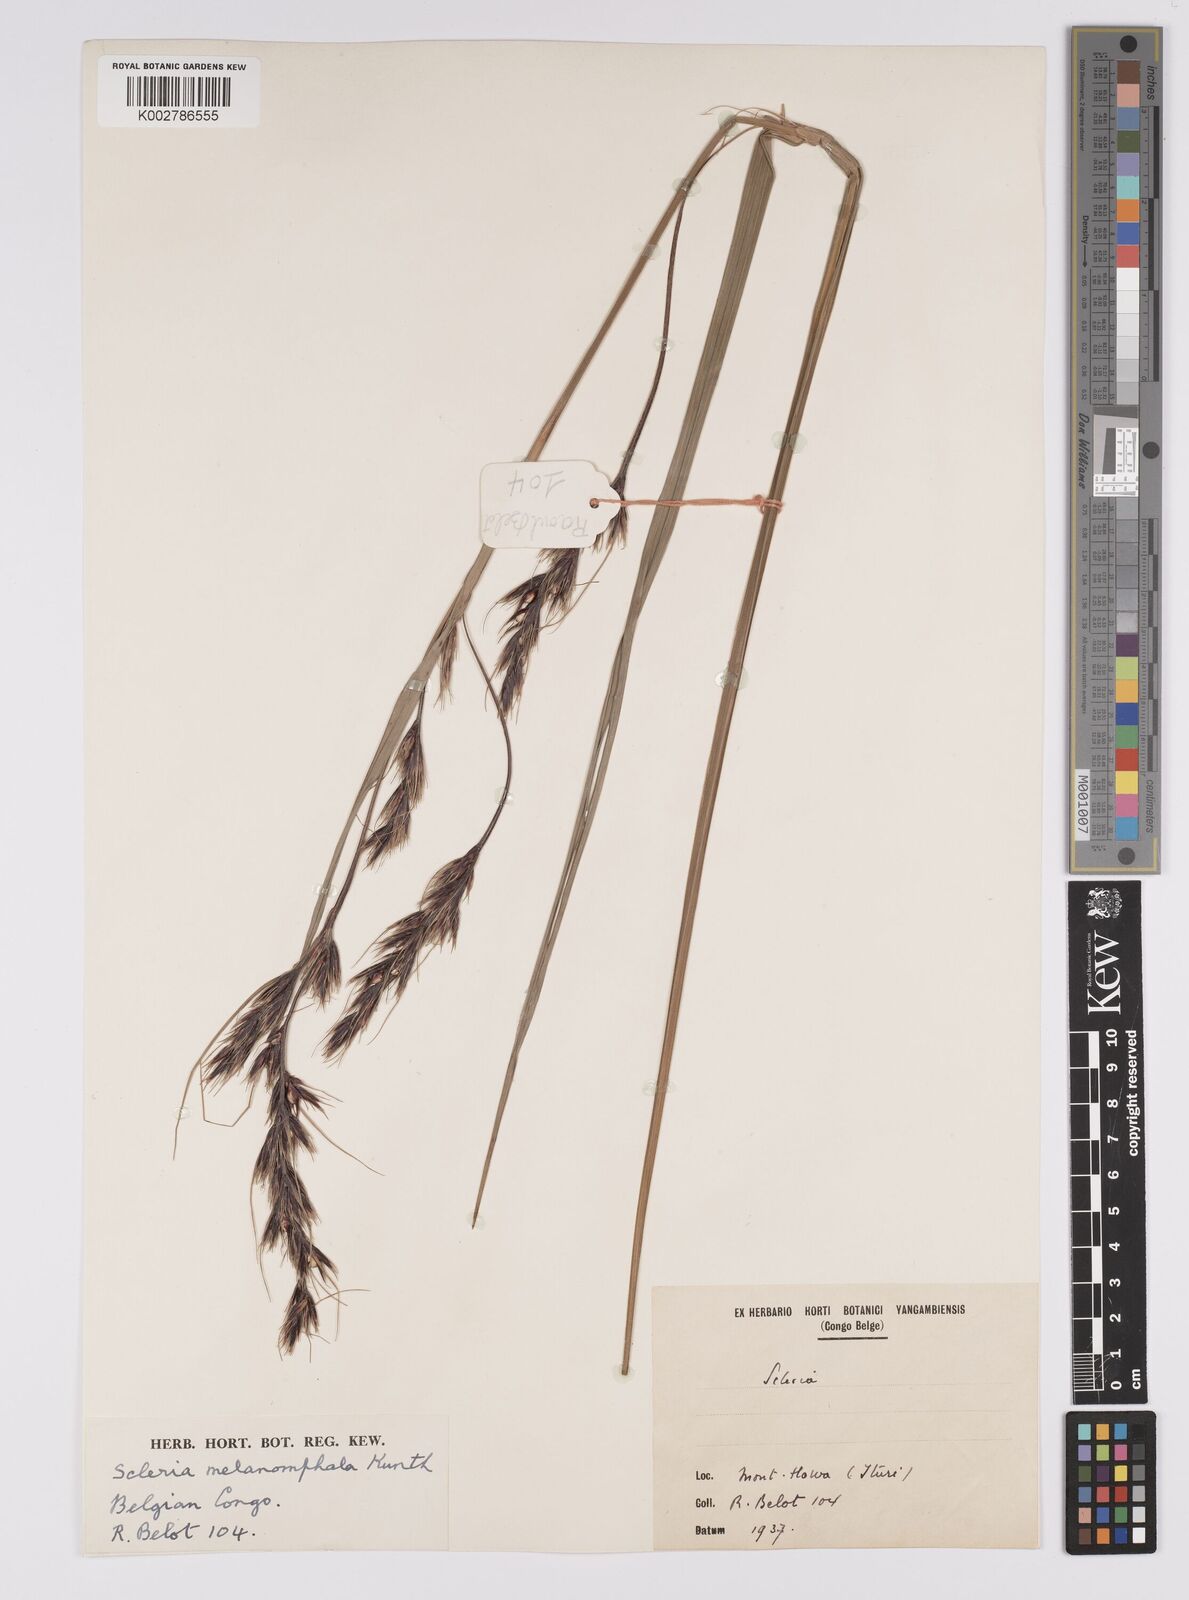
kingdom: Plantae
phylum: Tracheophyta
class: Liliopsida
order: Poales
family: Cyperaceae
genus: Scleria
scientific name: Scleria melanomphala
